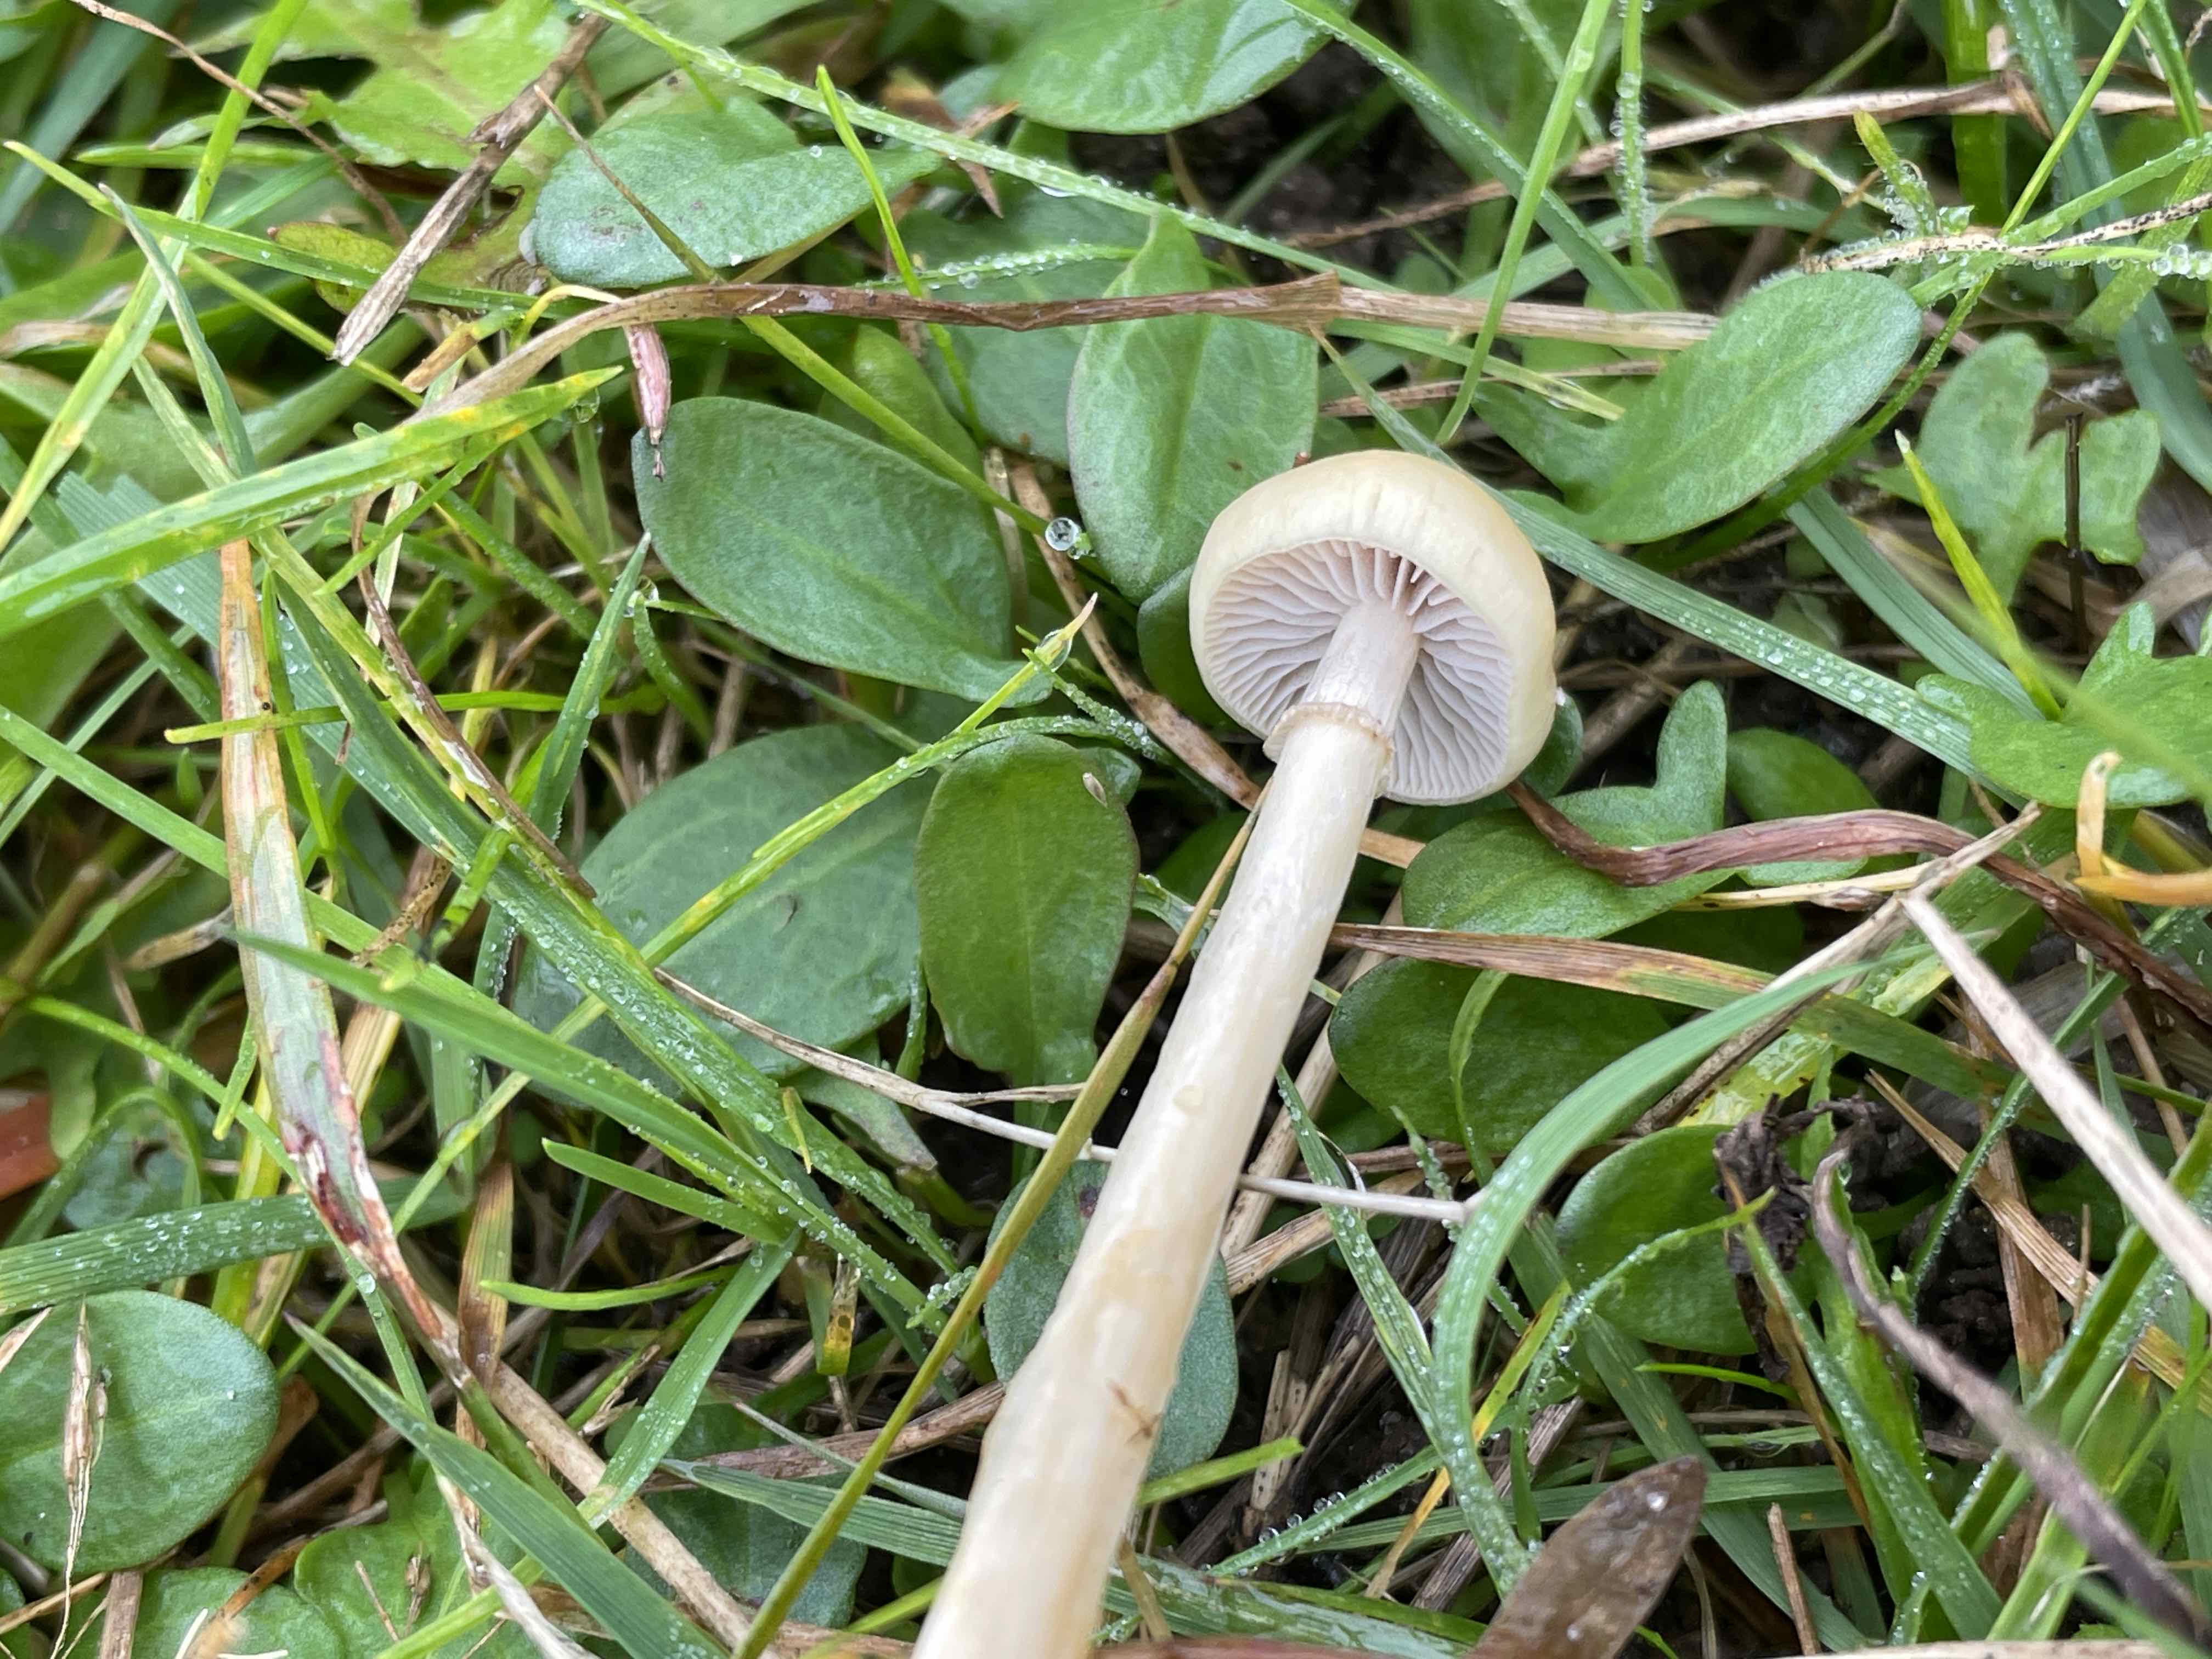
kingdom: Fungi
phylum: Basidiomycota
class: Agaricomycetes
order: Agaricales
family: Strophariaceae
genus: Protostropharia
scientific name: Protostropharia semiglobata
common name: halvkugleformet bredblad
